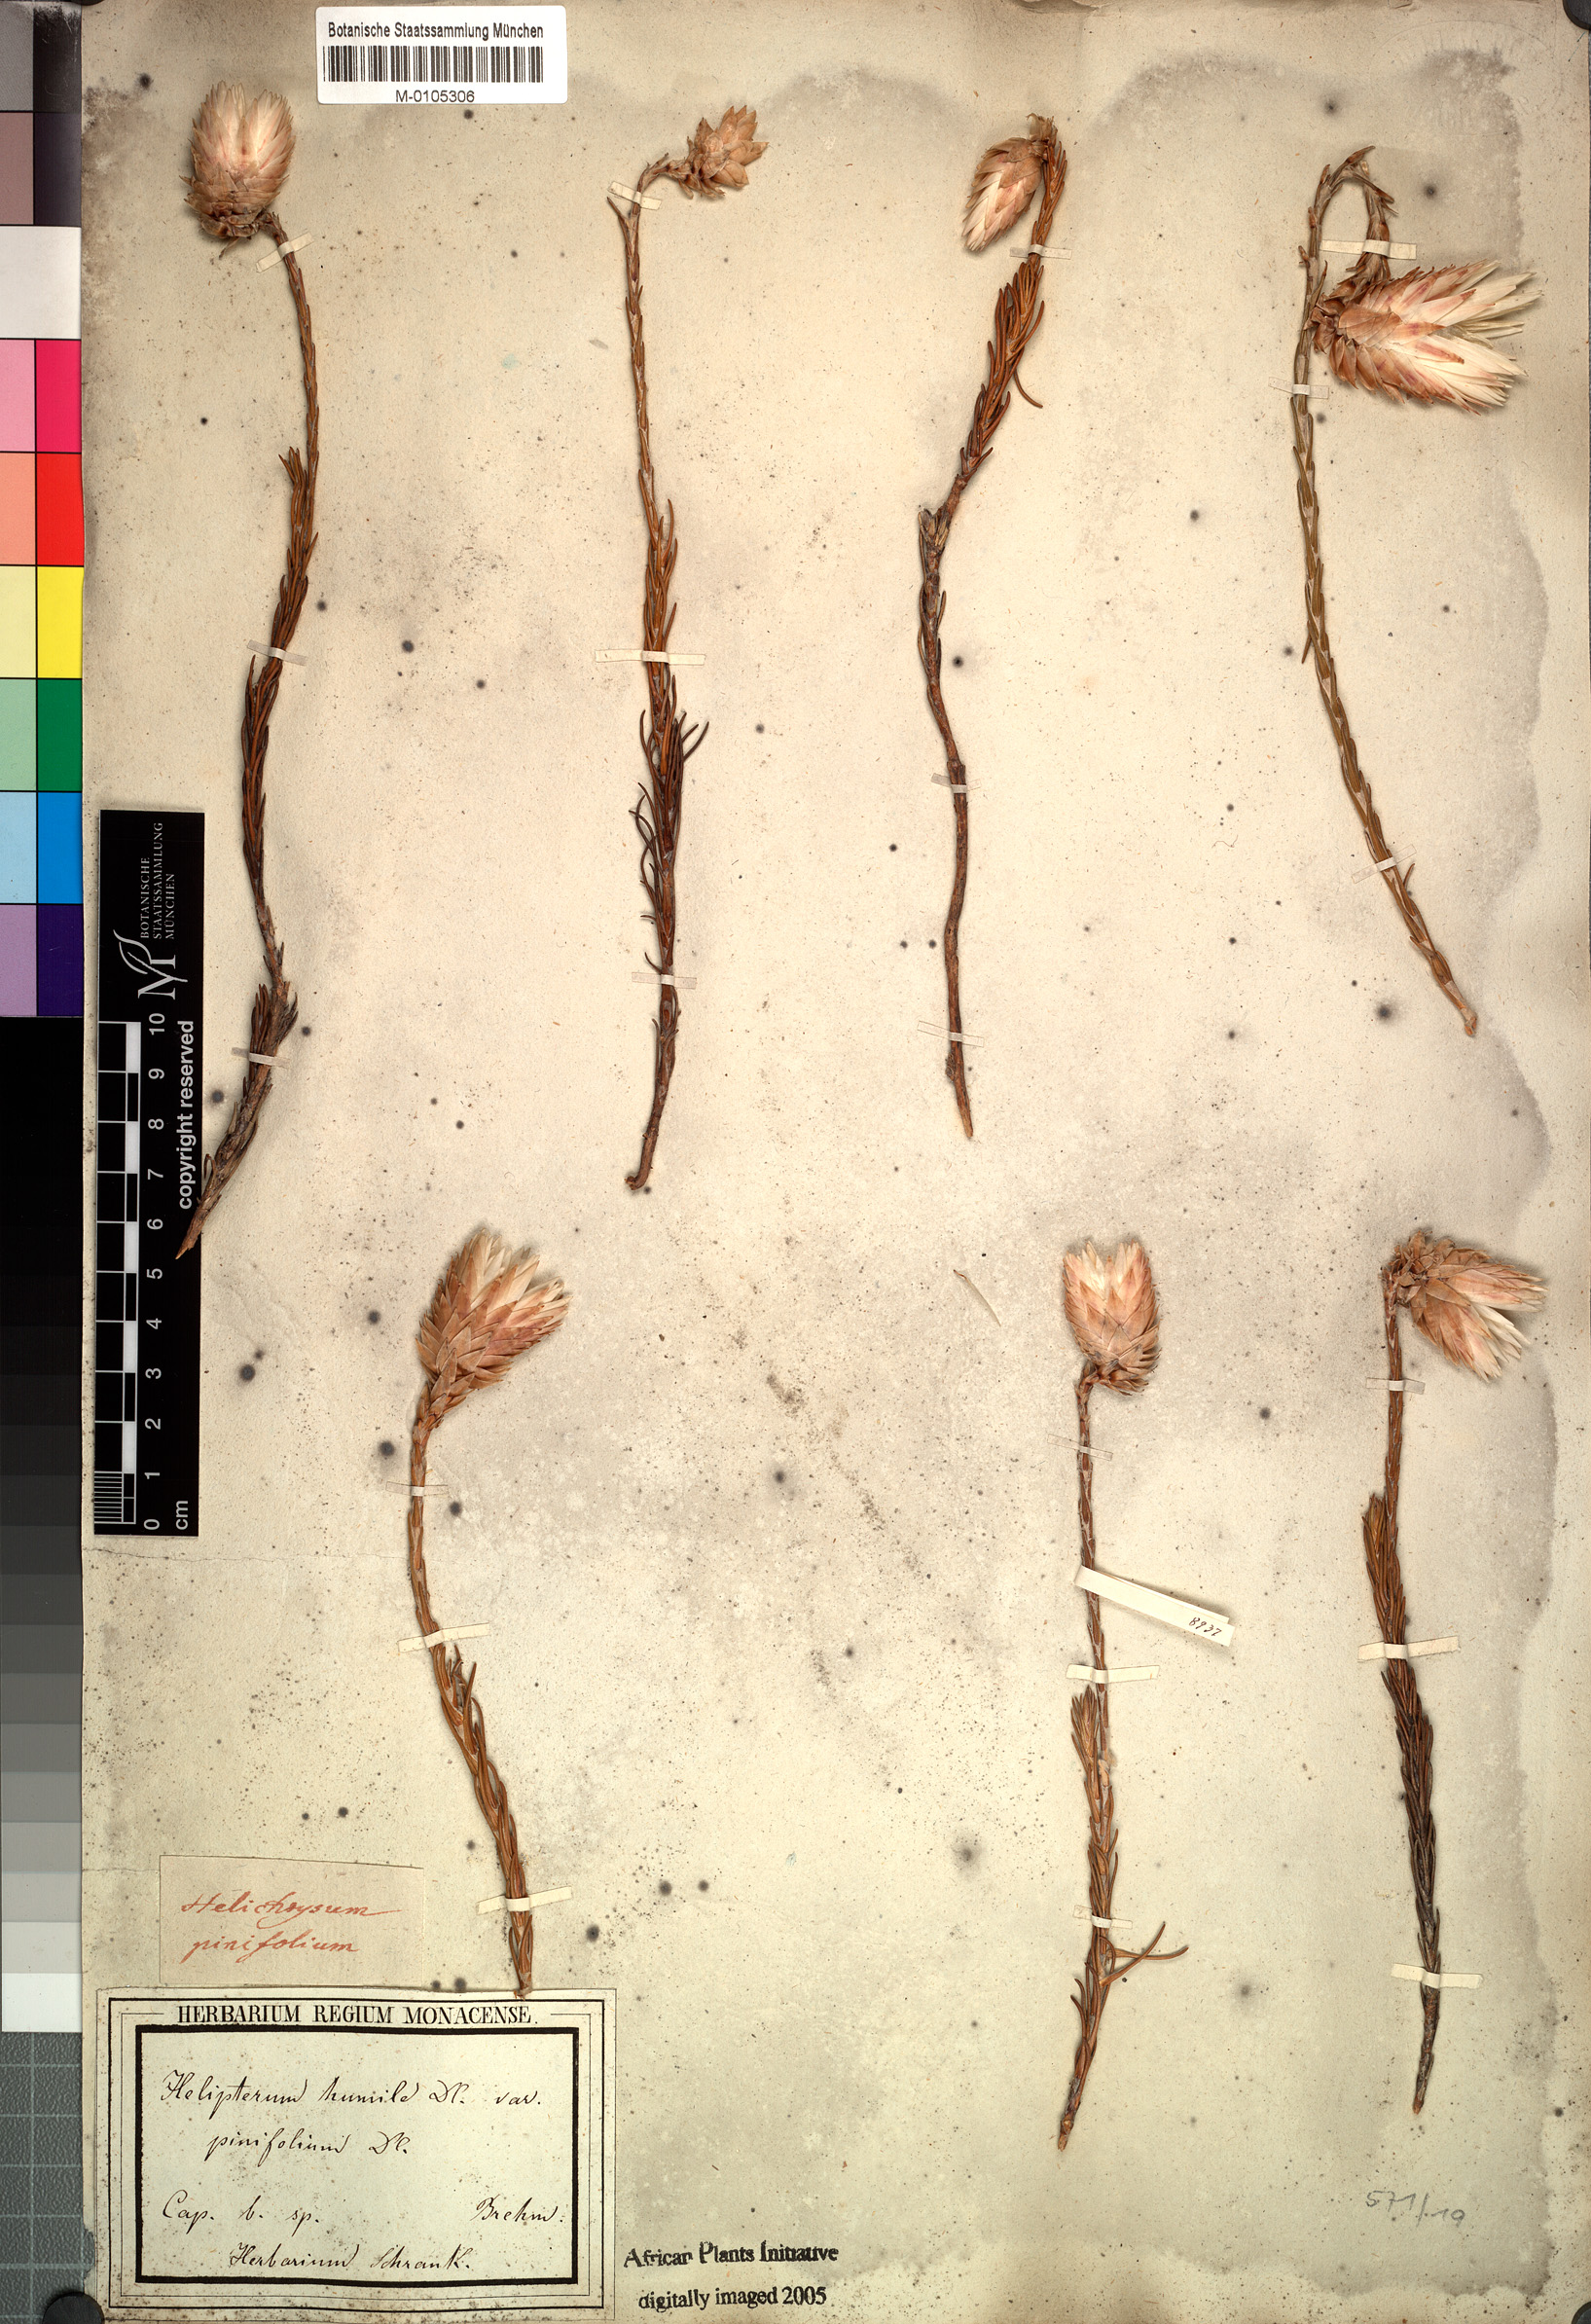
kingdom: Plantae
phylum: Tracheophyta
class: Magnoliopsida
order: Asterales
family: Asteraceae
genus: Edmondia
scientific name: Edmondia pinifolia
